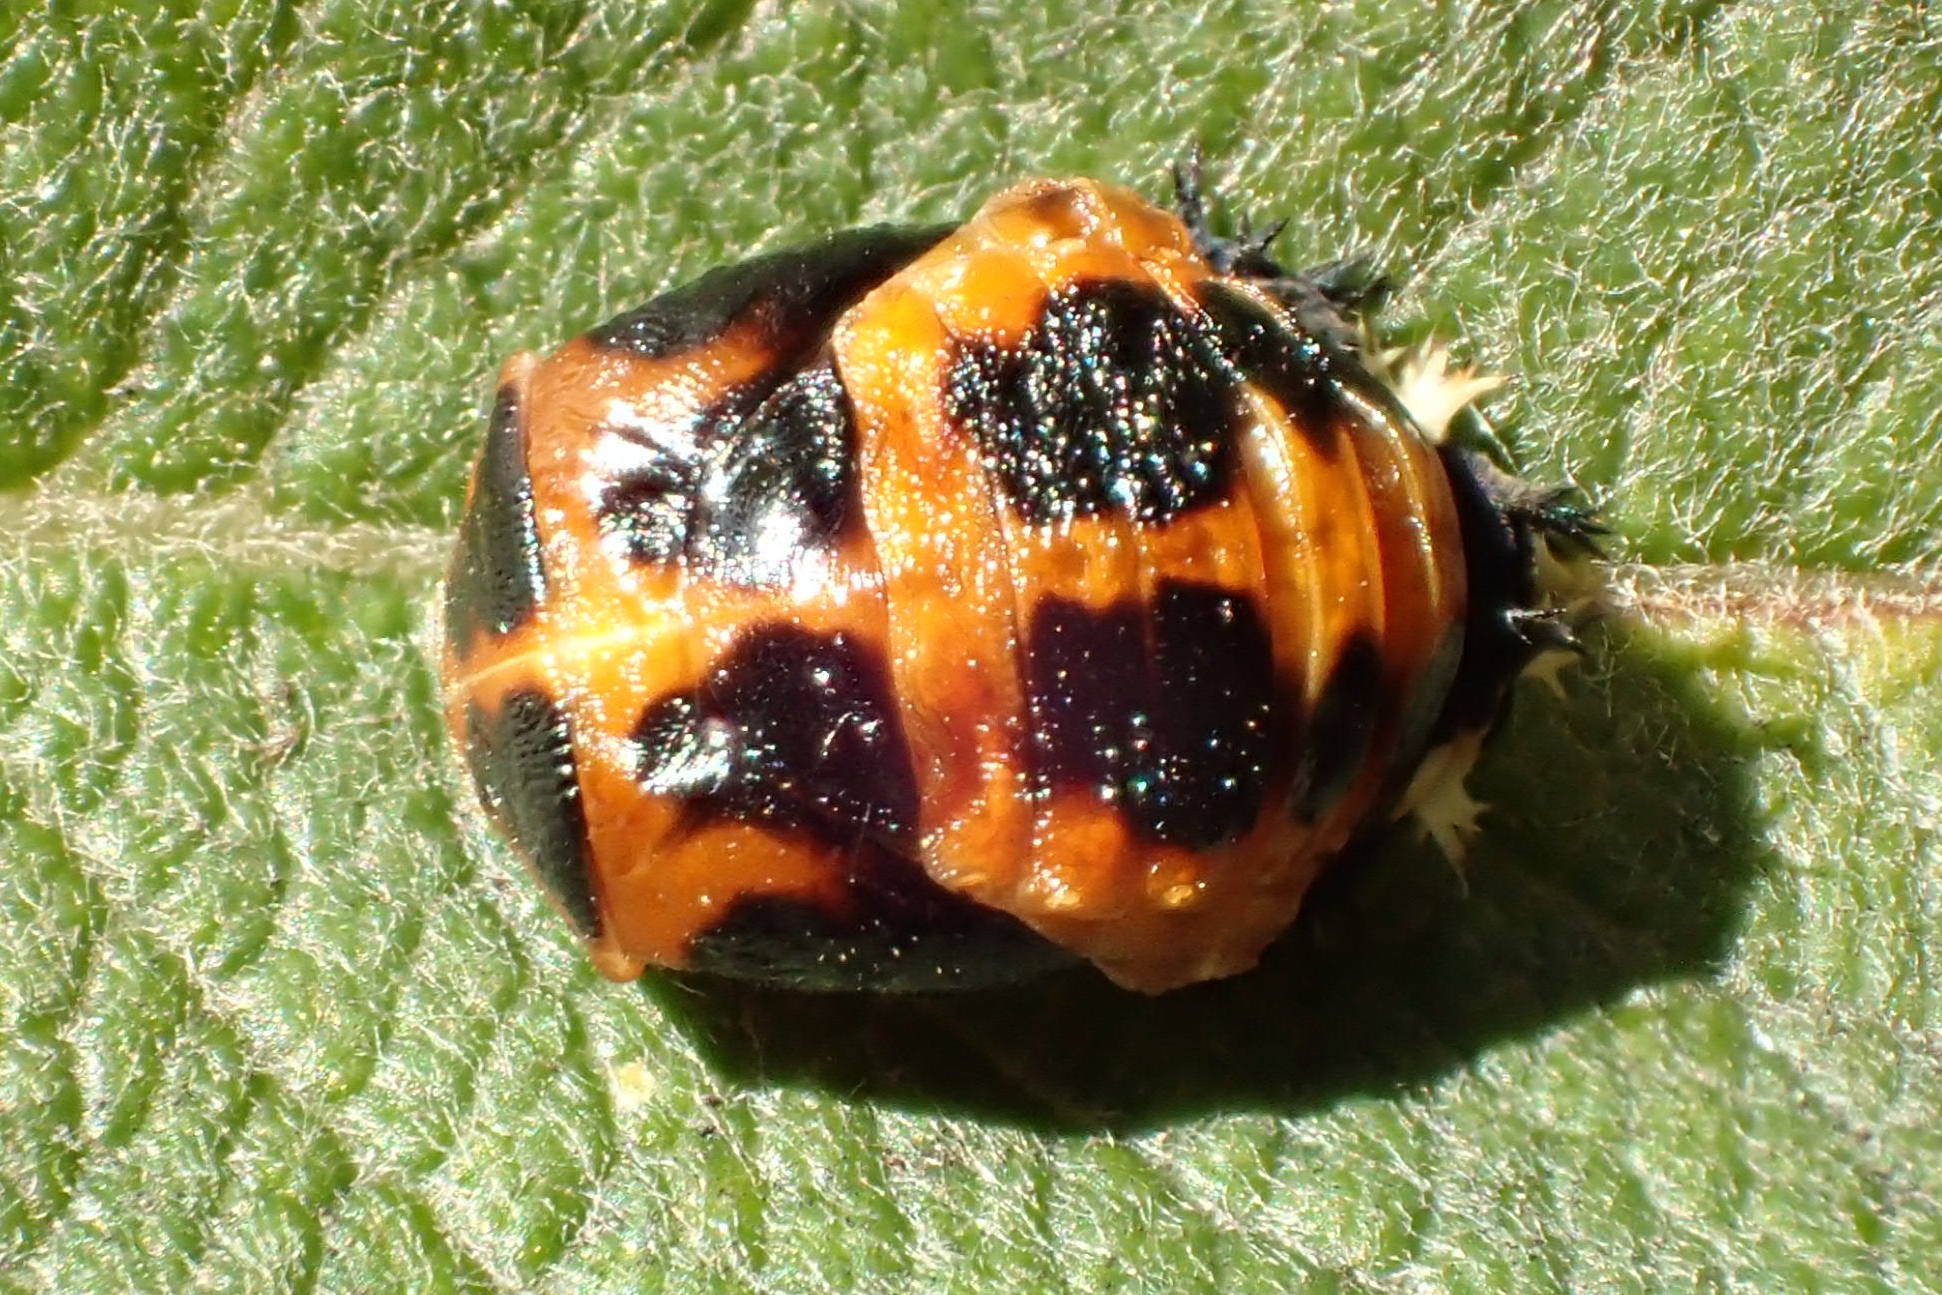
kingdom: Animalia
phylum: Arthropoda
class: Insecta
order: Coleoptera
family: Coccinellidae
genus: Harmonia
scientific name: Harmonia axyridis
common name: Harlekinmariehøne
